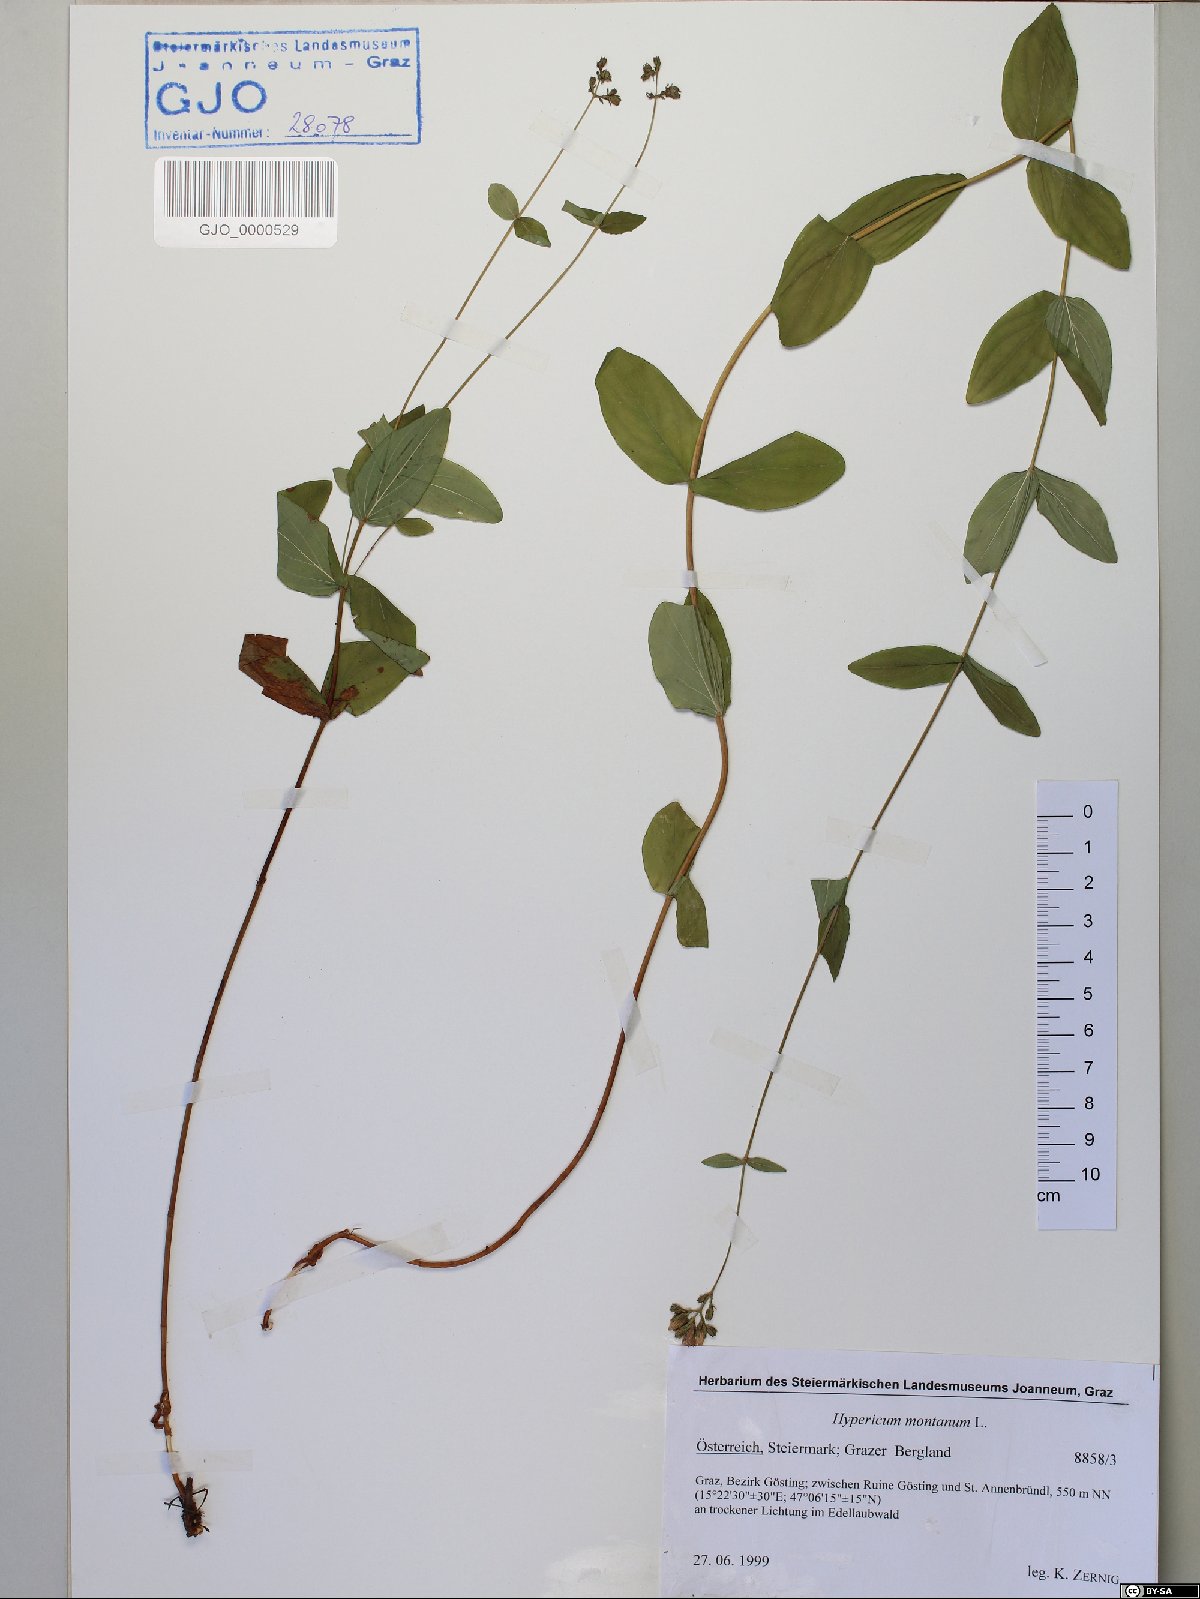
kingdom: Plantae
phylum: Tracheophyta
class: Magnoliopsida
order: Malpighiales
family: Hypericaceae
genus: Hypericum
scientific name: Hypericum montanum
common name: Pale st. john's-wort
